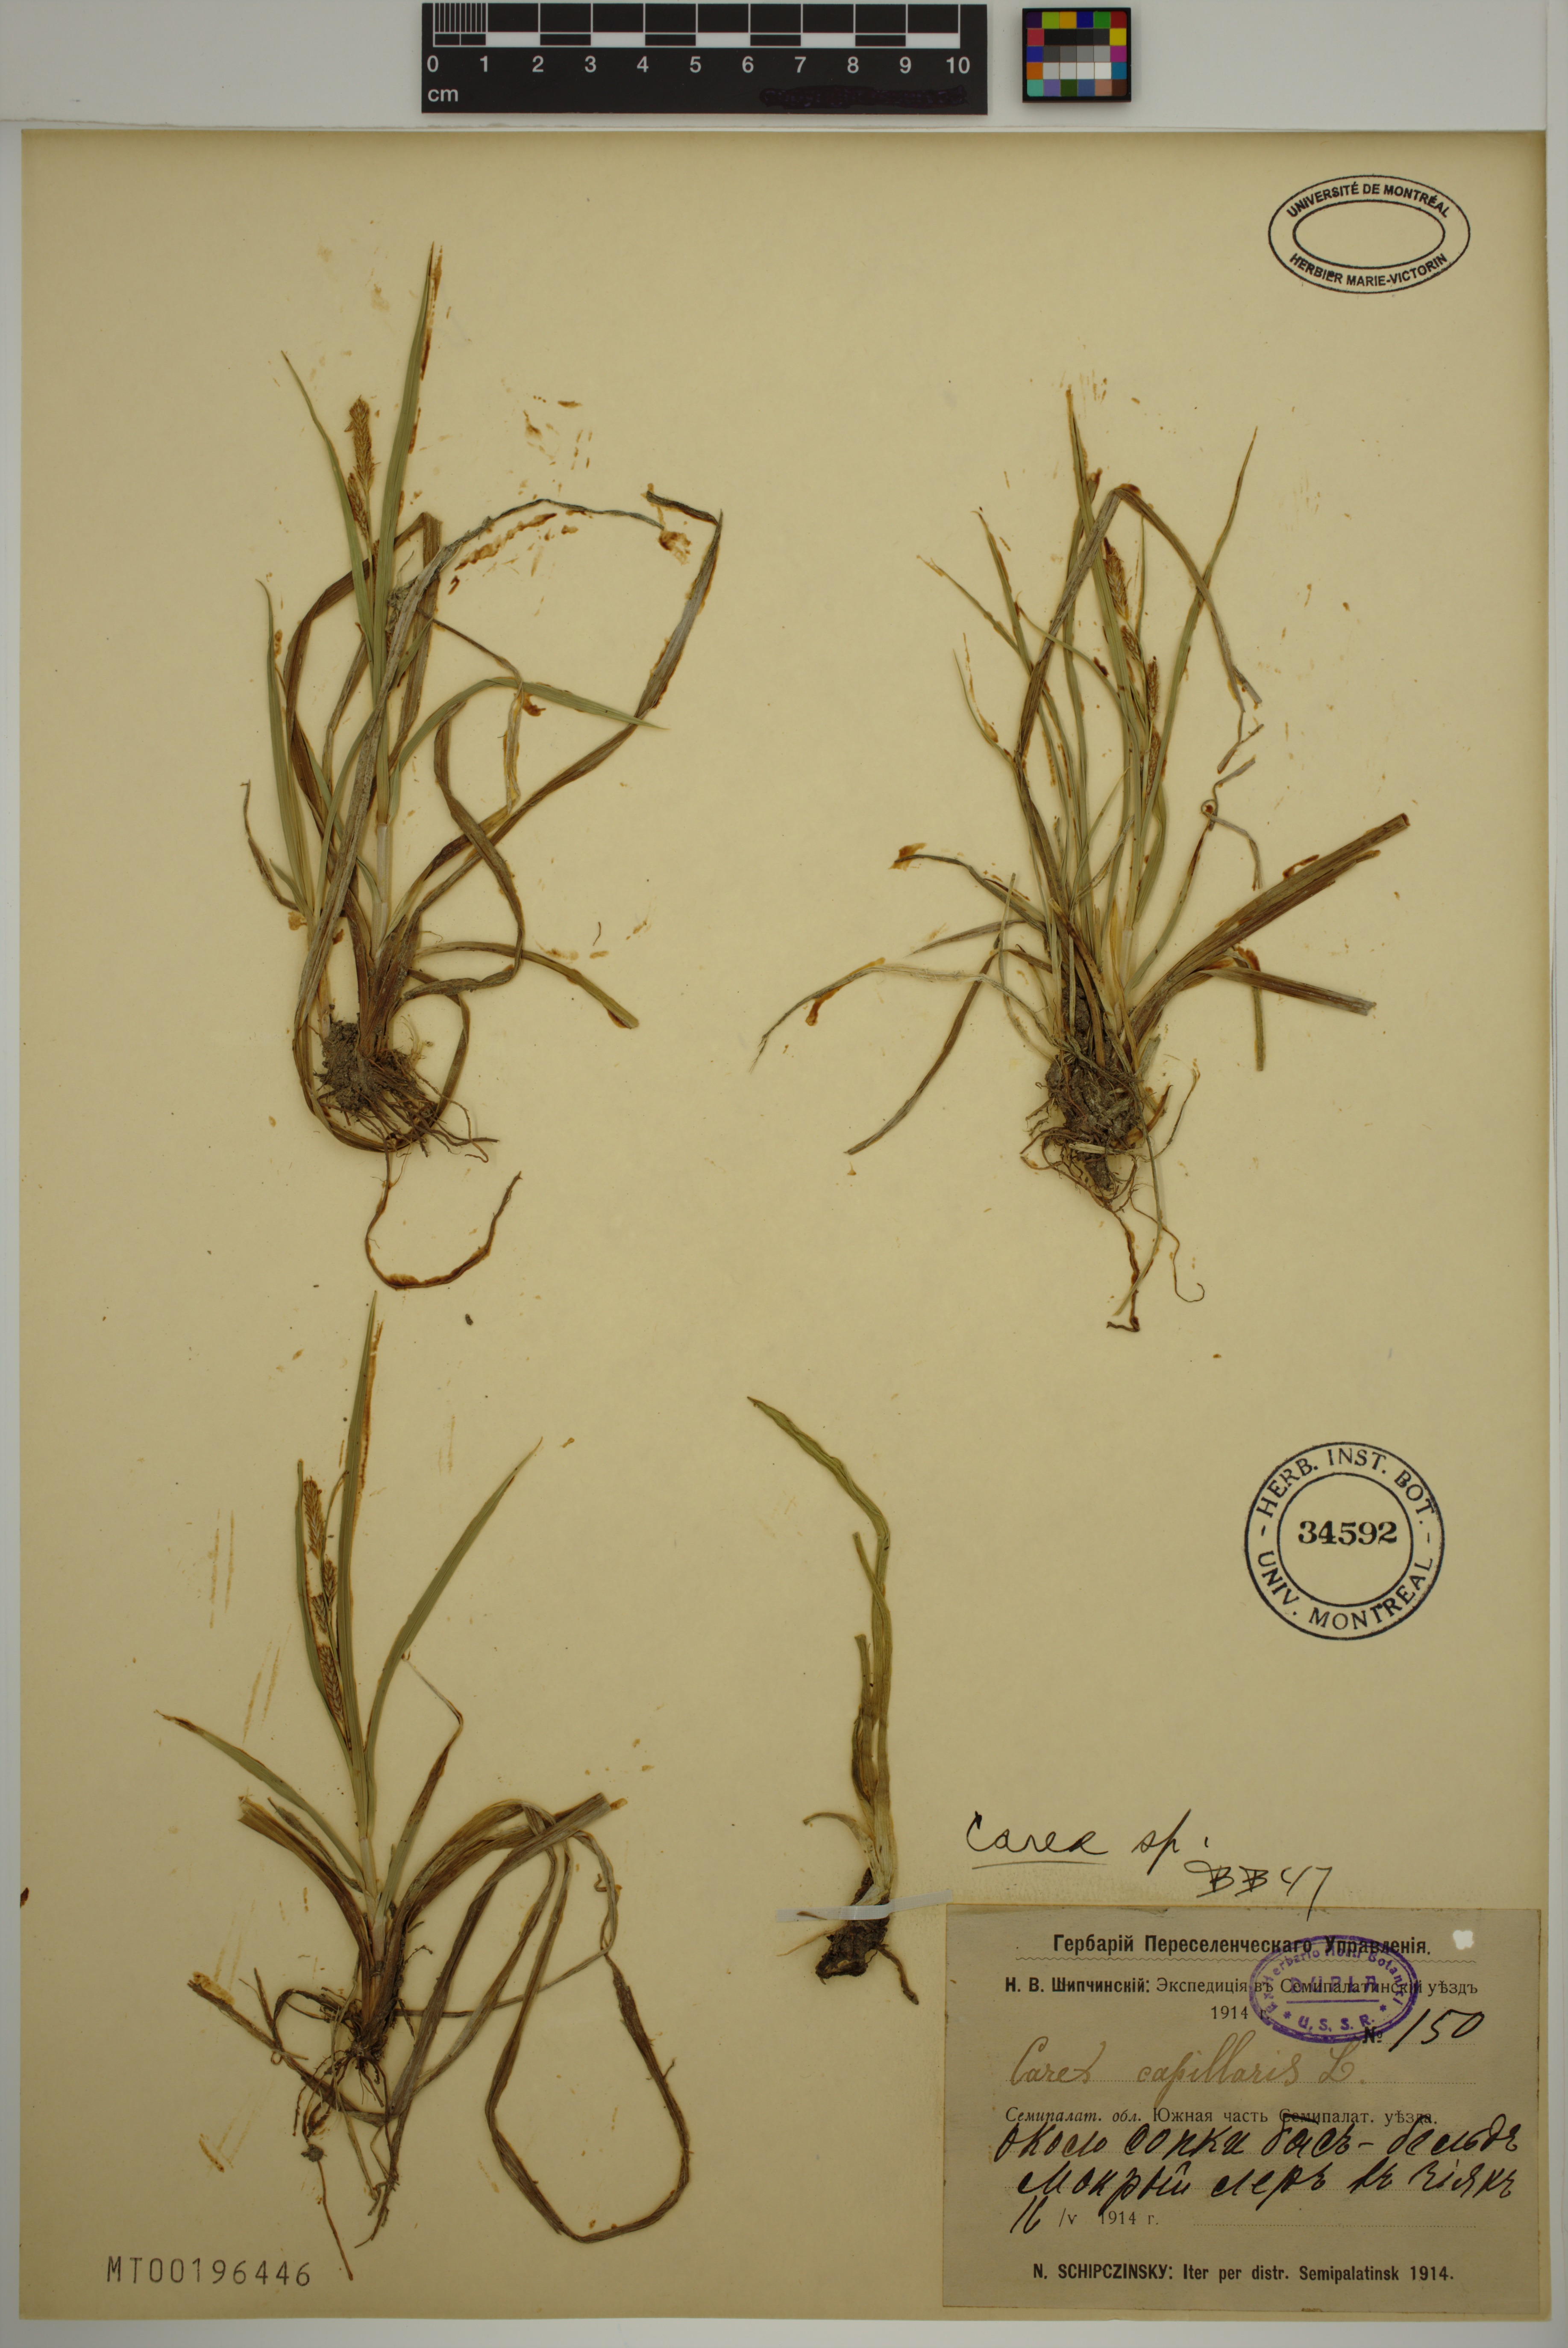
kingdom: Plantae
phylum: Tracheophyta
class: Liliopsida
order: Poales
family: Cyperaceae
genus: Carex
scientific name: Carex
